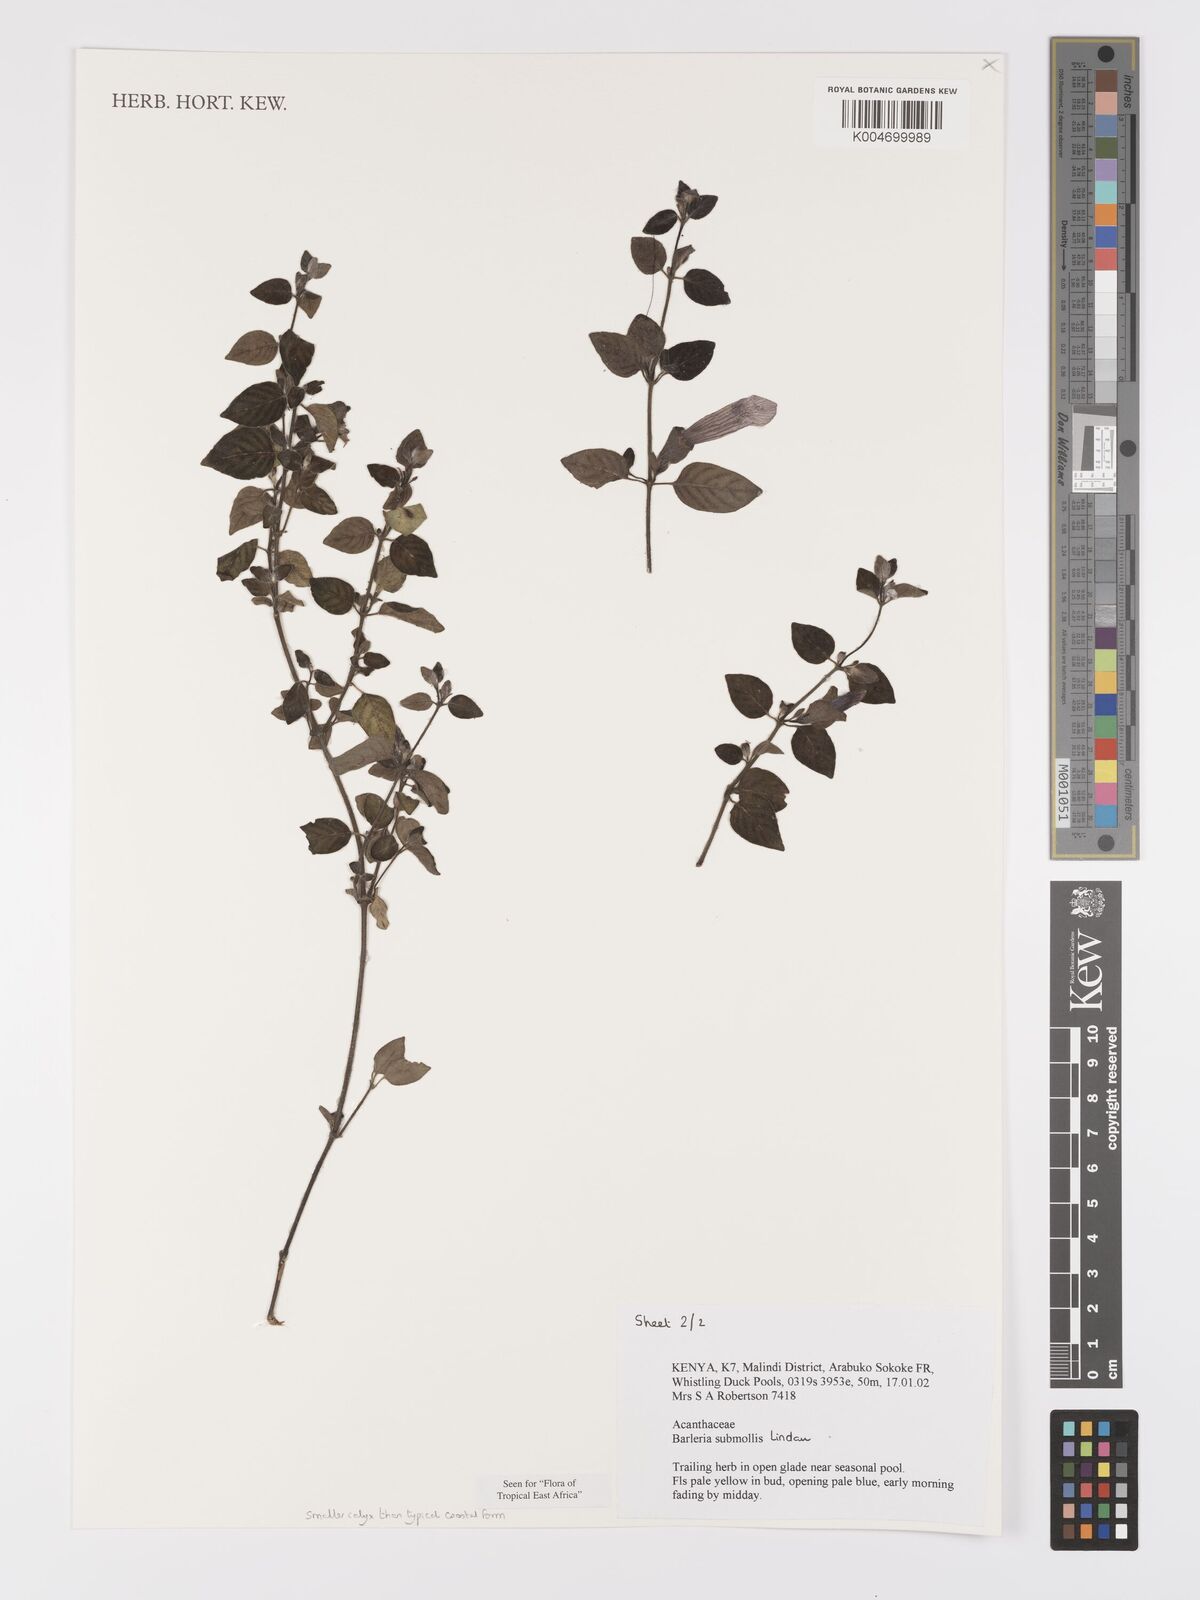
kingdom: Plantae
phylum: Tracheophyta
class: Magnoliopsida
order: Lamiales
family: Acanthaceae
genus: Barleria
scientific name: Barleria submollis
